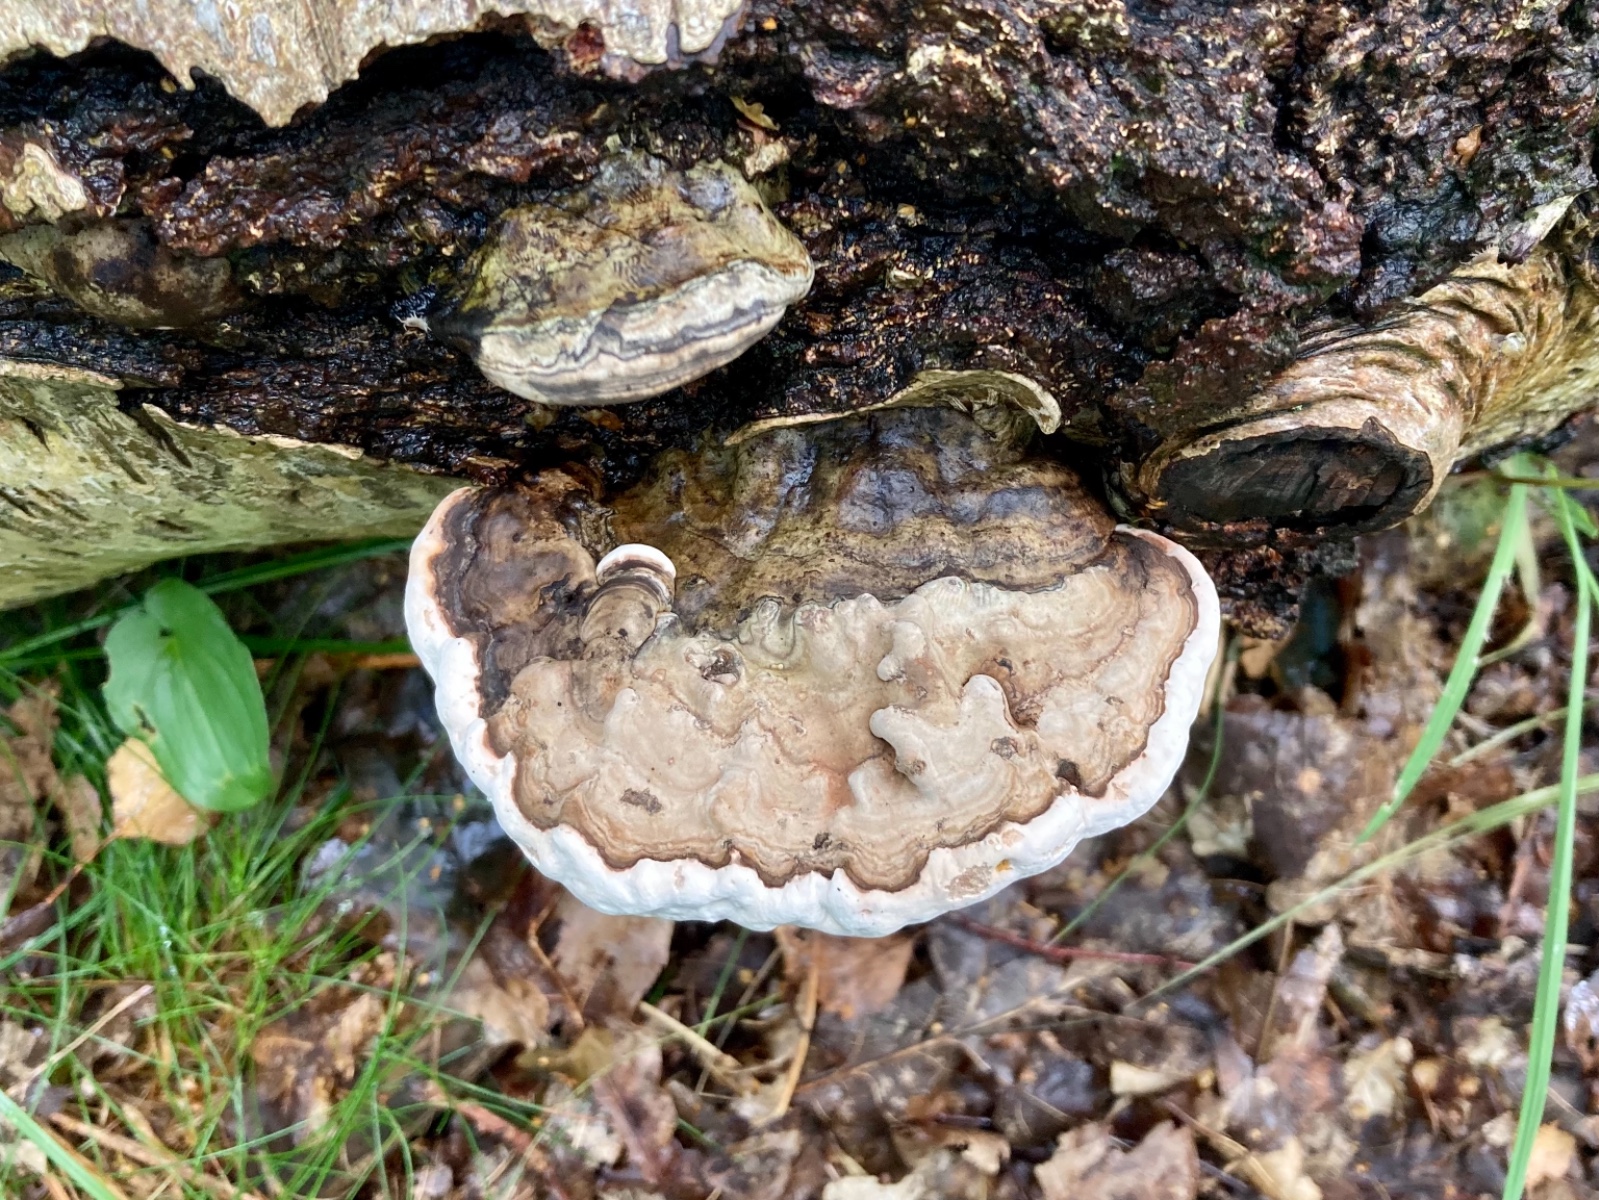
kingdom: Fungi
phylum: Basidiomycota
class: Agaricomycetes
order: Polyporales
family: Polyporaceae
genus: Ganoderma
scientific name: Ganoderma applanatum
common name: flad lakporesvamp
